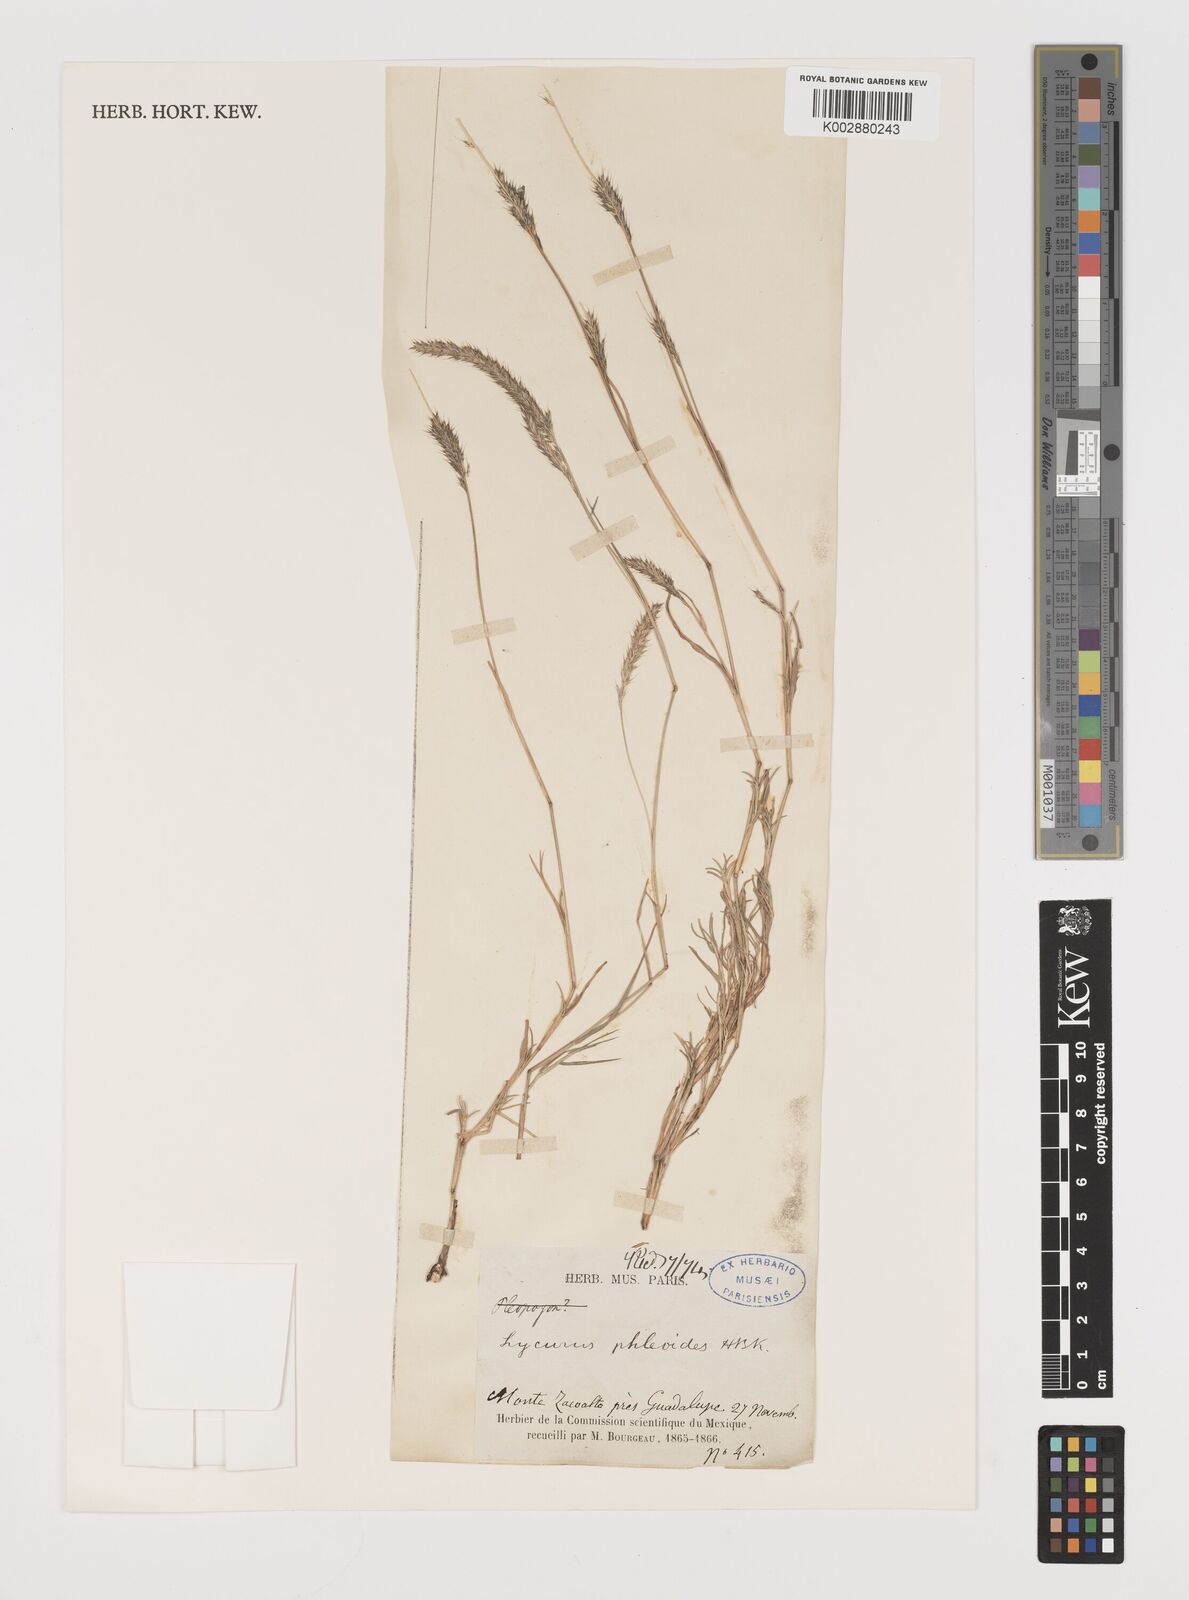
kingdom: Plantae
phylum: Tracheophyta
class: Liliopsida
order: Poales
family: Poaceae
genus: Muhlenbergia
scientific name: Muhlenbergia phalaroides
